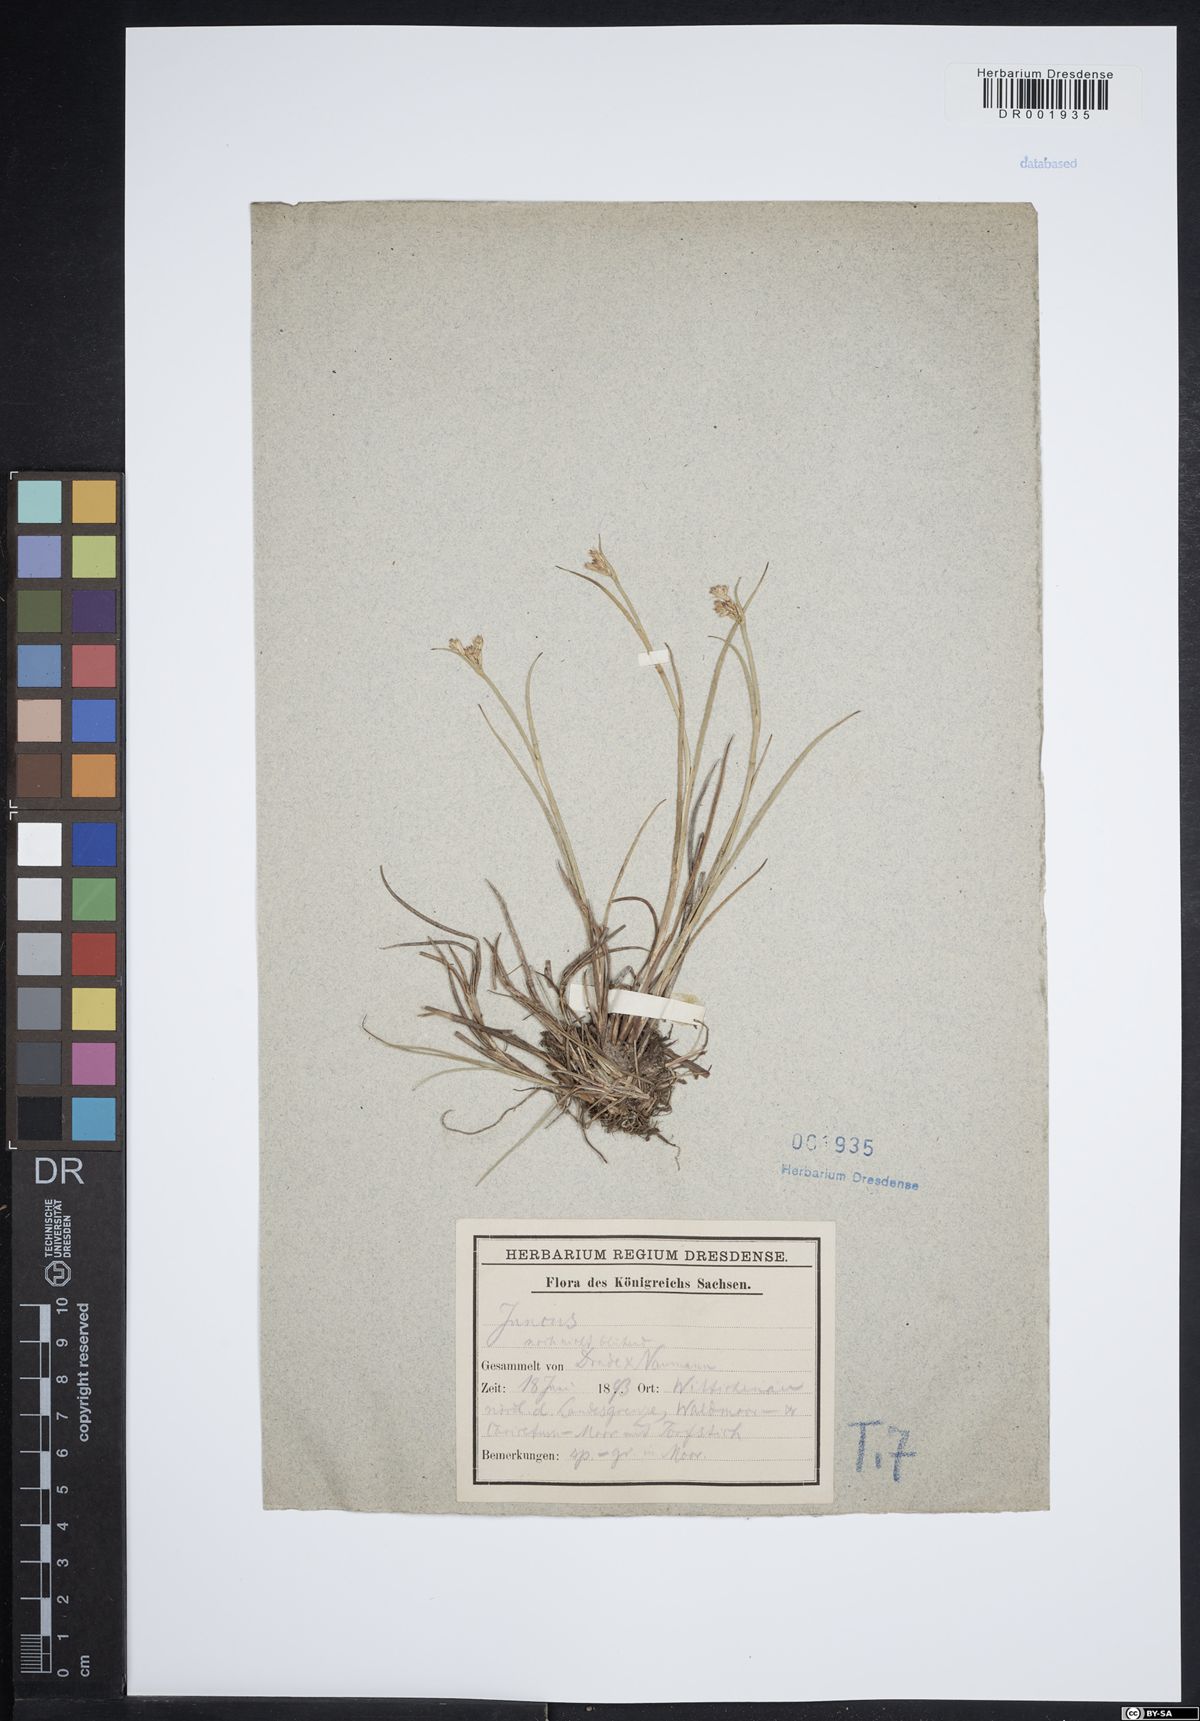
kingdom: Plantae
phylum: Tracheophyta
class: Liliopsida
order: Poales
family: Juncaceae
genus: Juncus
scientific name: Juncus articulatus
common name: Jointed rush
